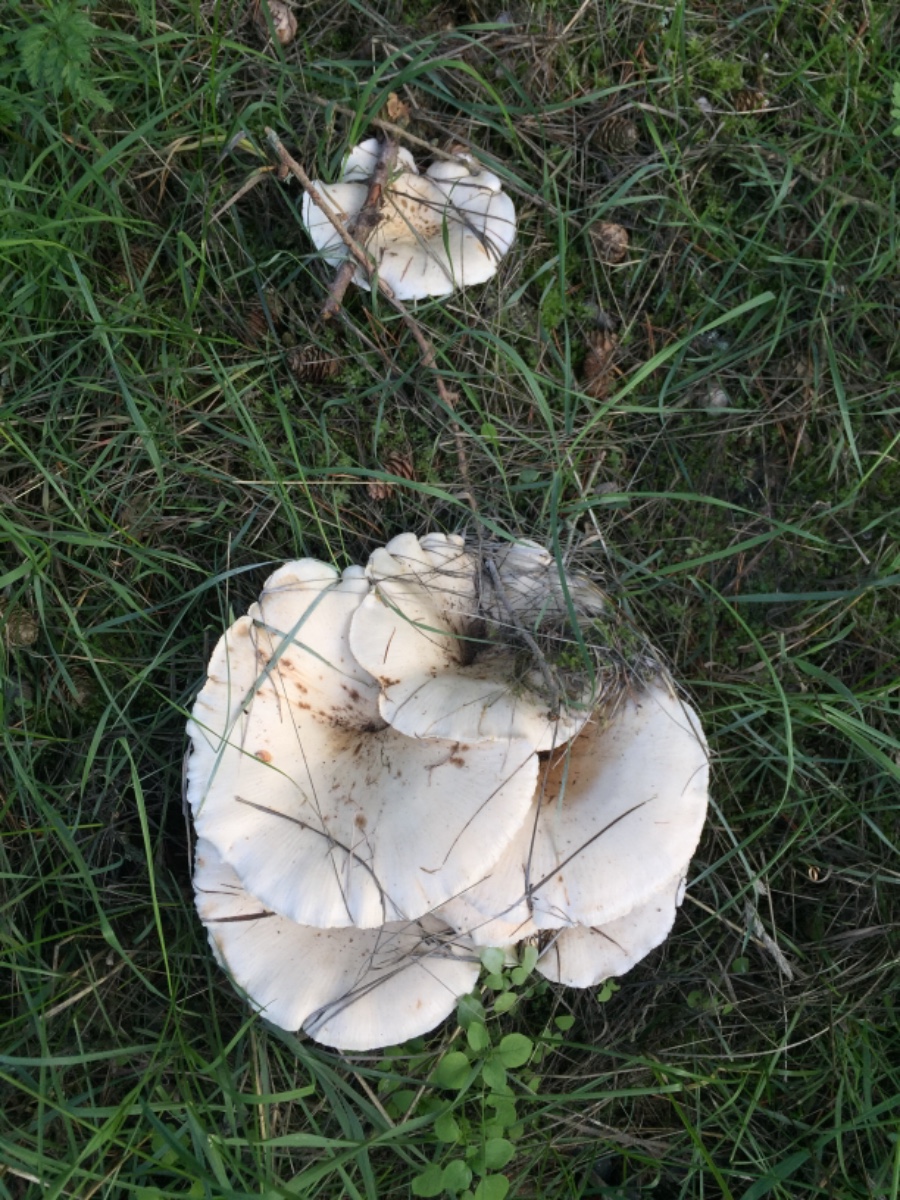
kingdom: Fungi
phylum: Basidiomycota
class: Agaricomycetes
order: Agaricales
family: Tricholomataceae
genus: Aspropaxillus
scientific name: Aspropaxillus giganteus
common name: kæmpe-tragtridderhat
